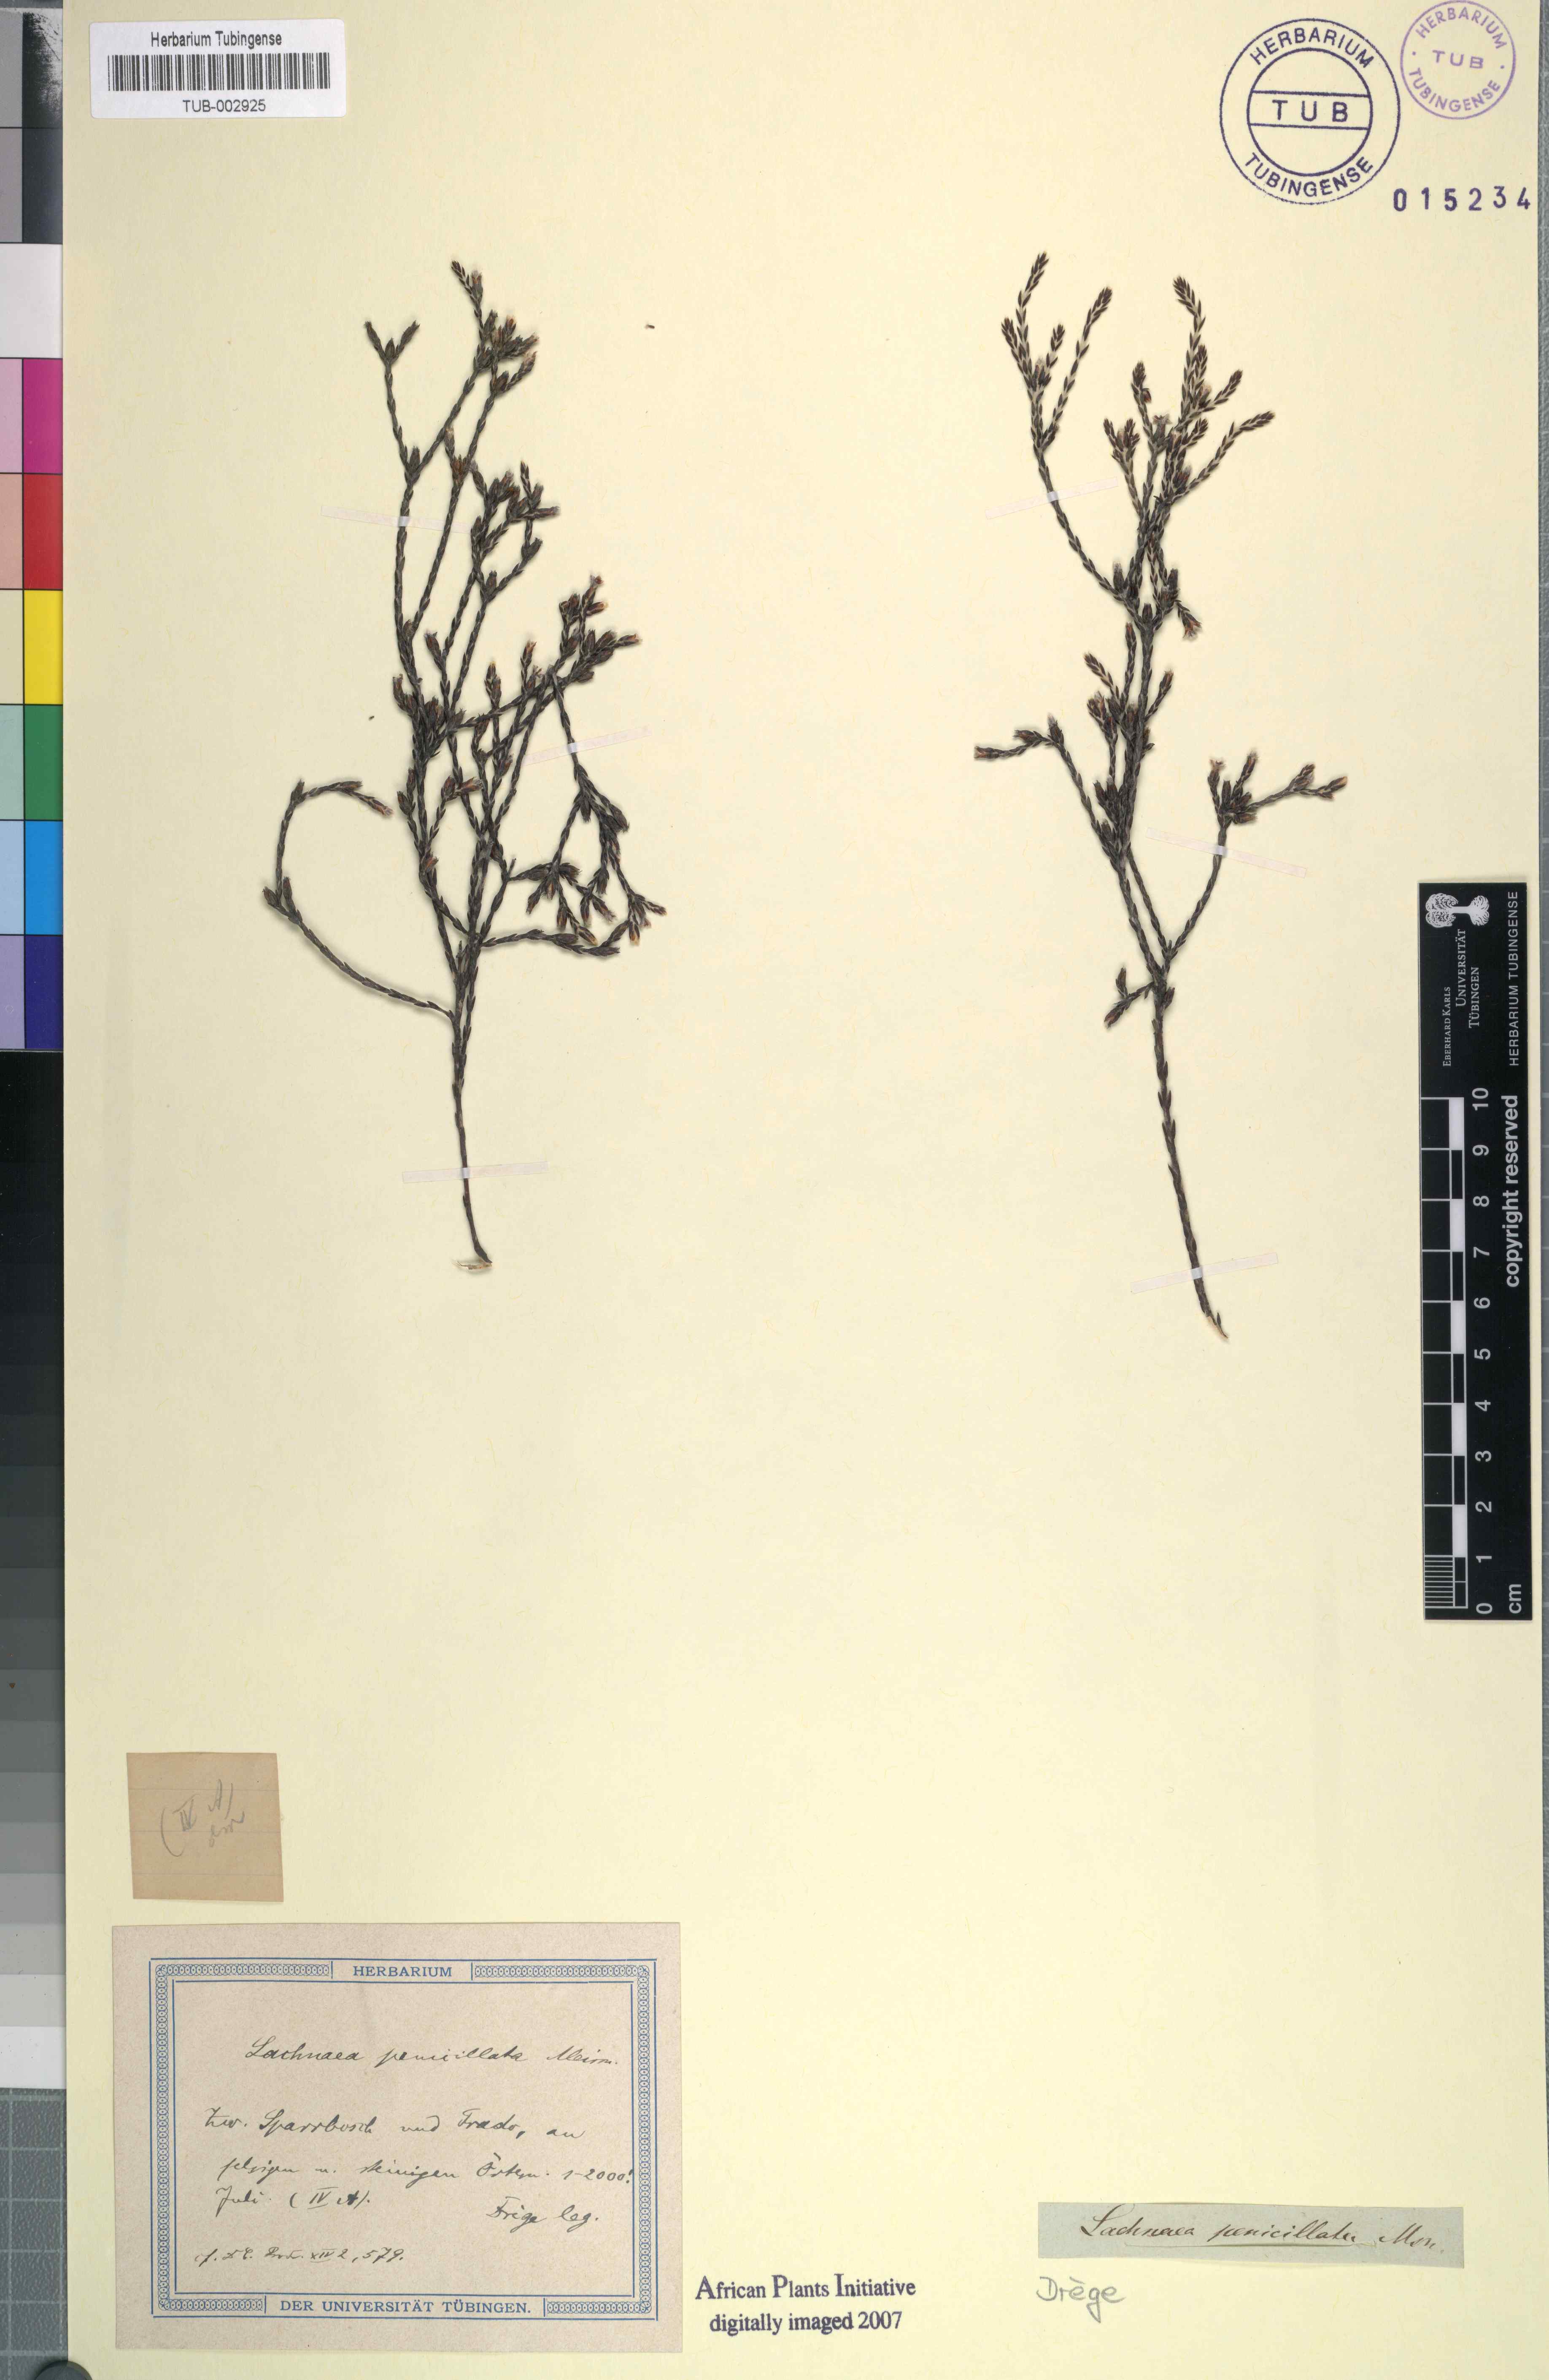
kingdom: Plantae
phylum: Tracheophyta
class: Magnoliopsida
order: Malvales
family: Thymelaeaceae
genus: Lachnaea
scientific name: Lachnaea penicillata
